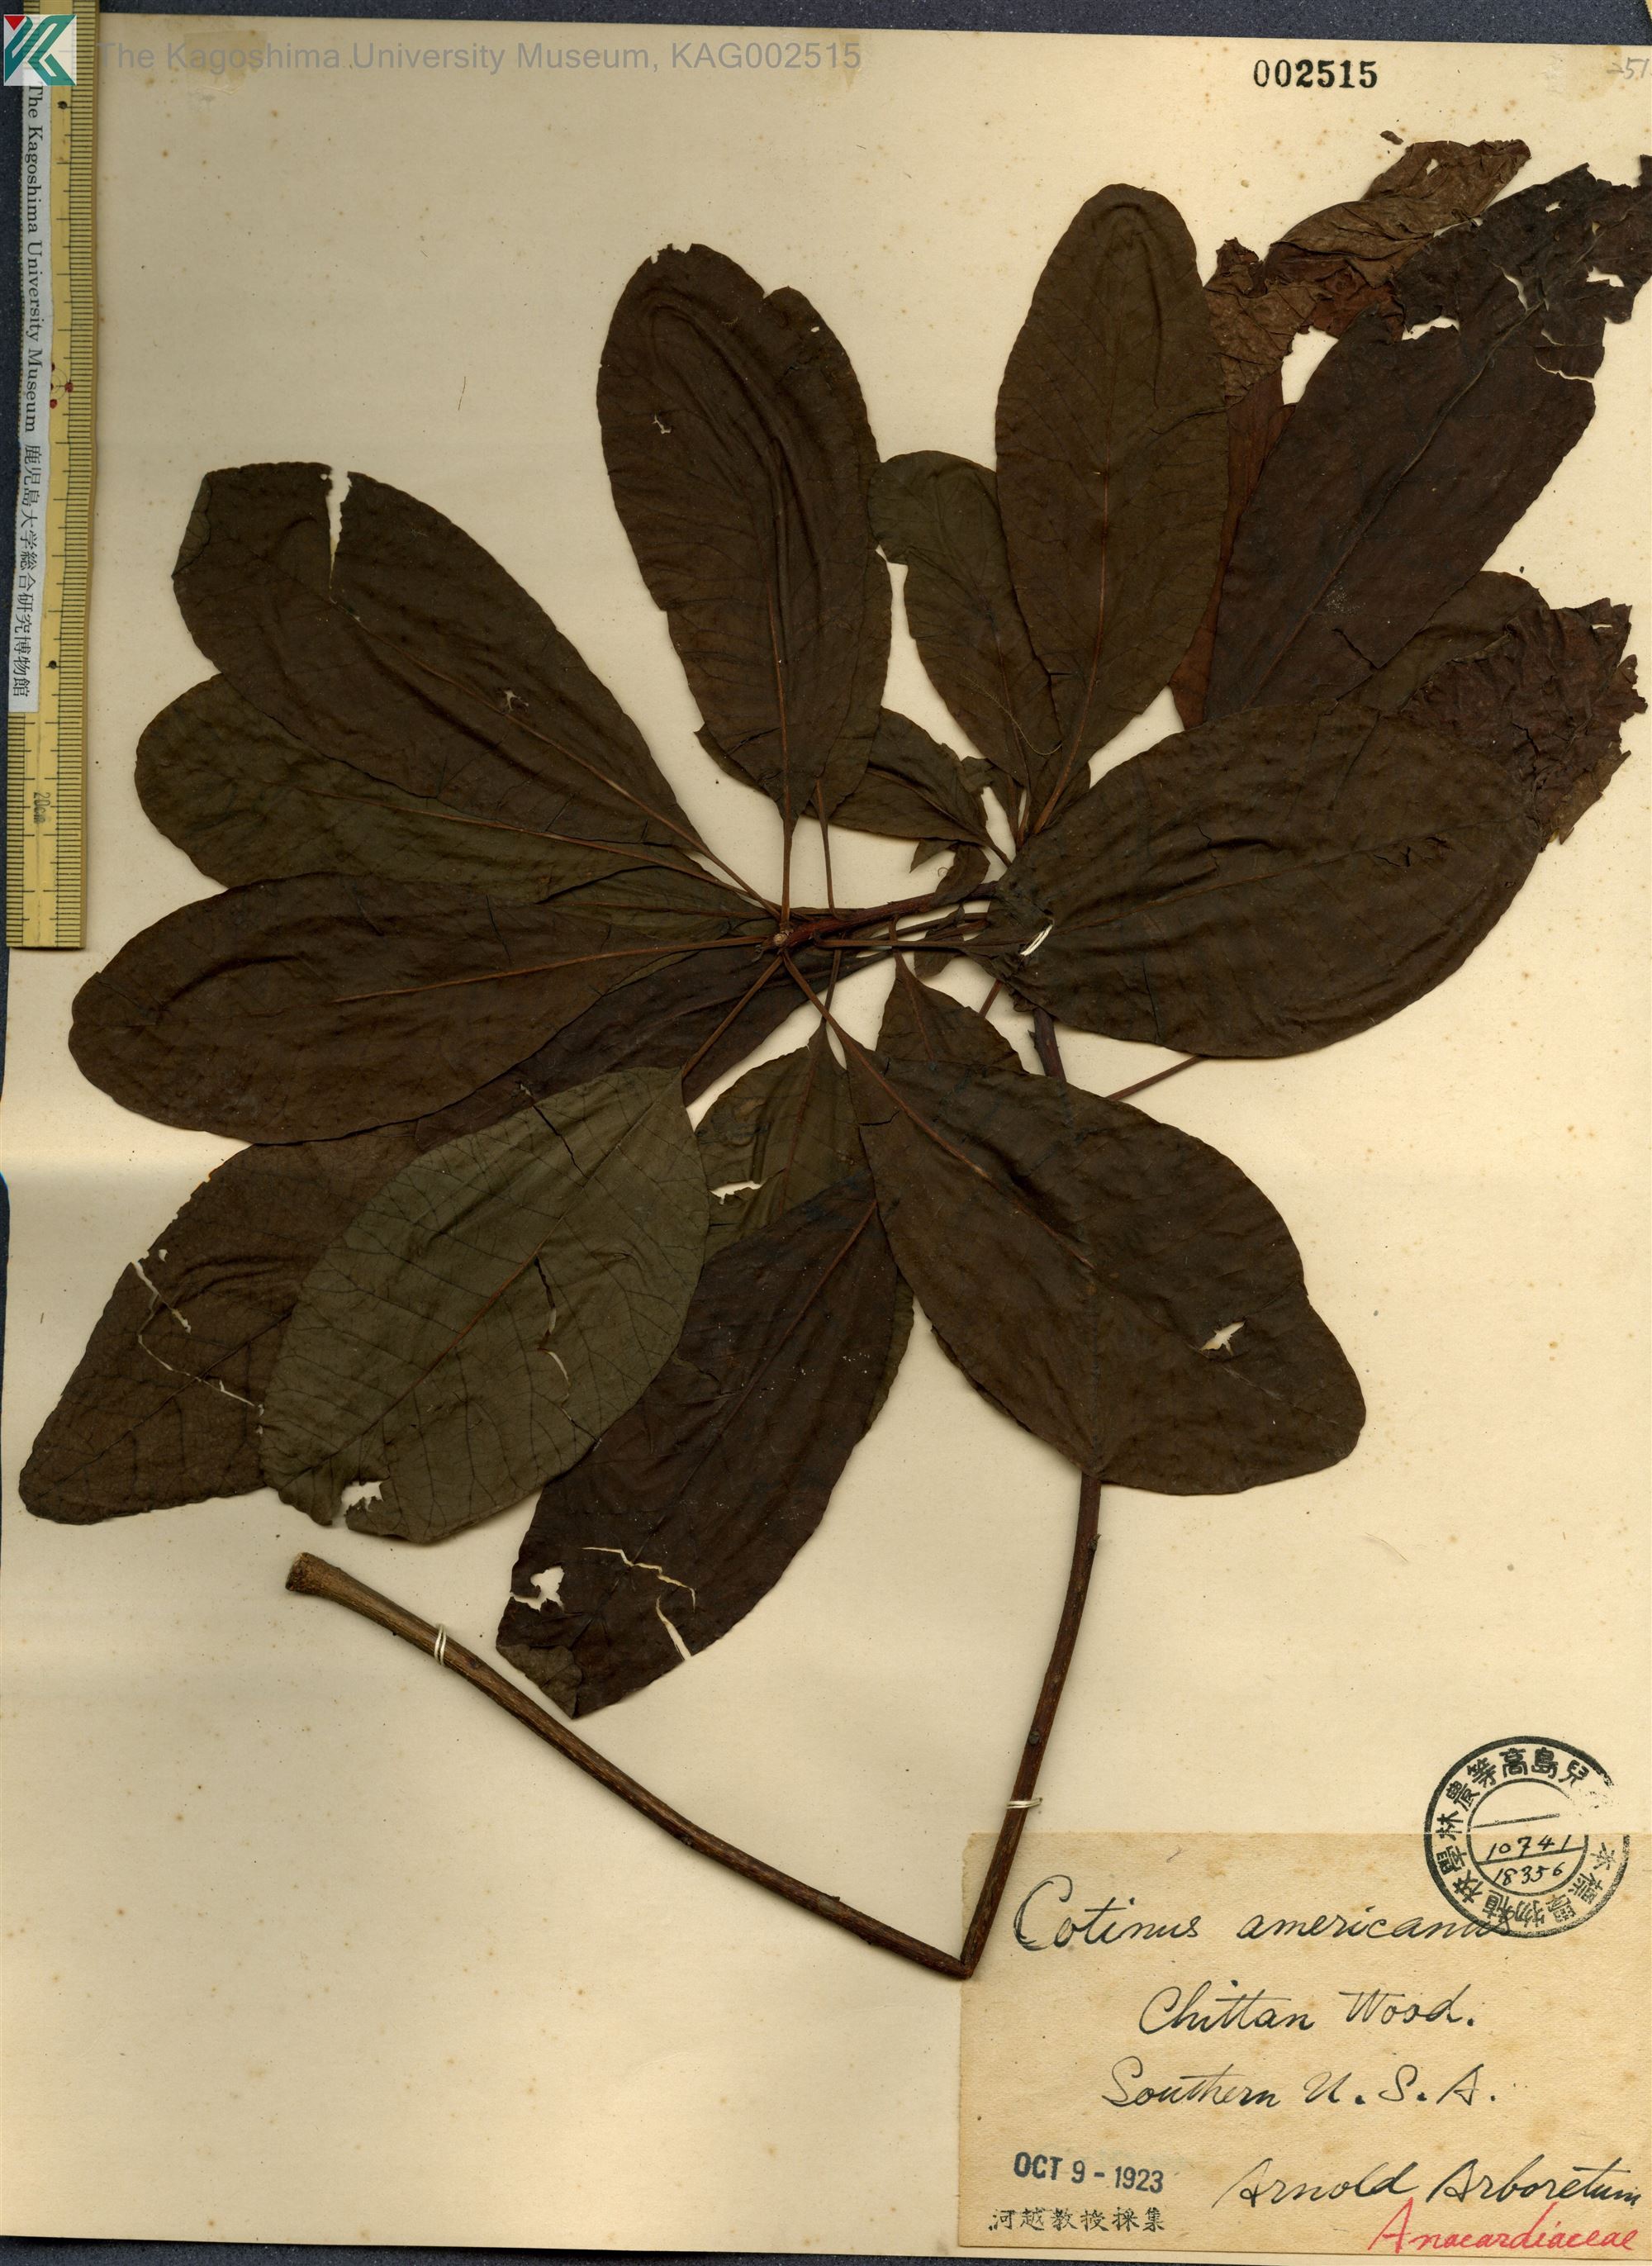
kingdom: Plantae
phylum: Tracheophyta
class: Magnoliopsida
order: Sapindales
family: Anacardiaceae
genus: Cotinus
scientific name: Cotinus obovatus
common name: Chittamwood
